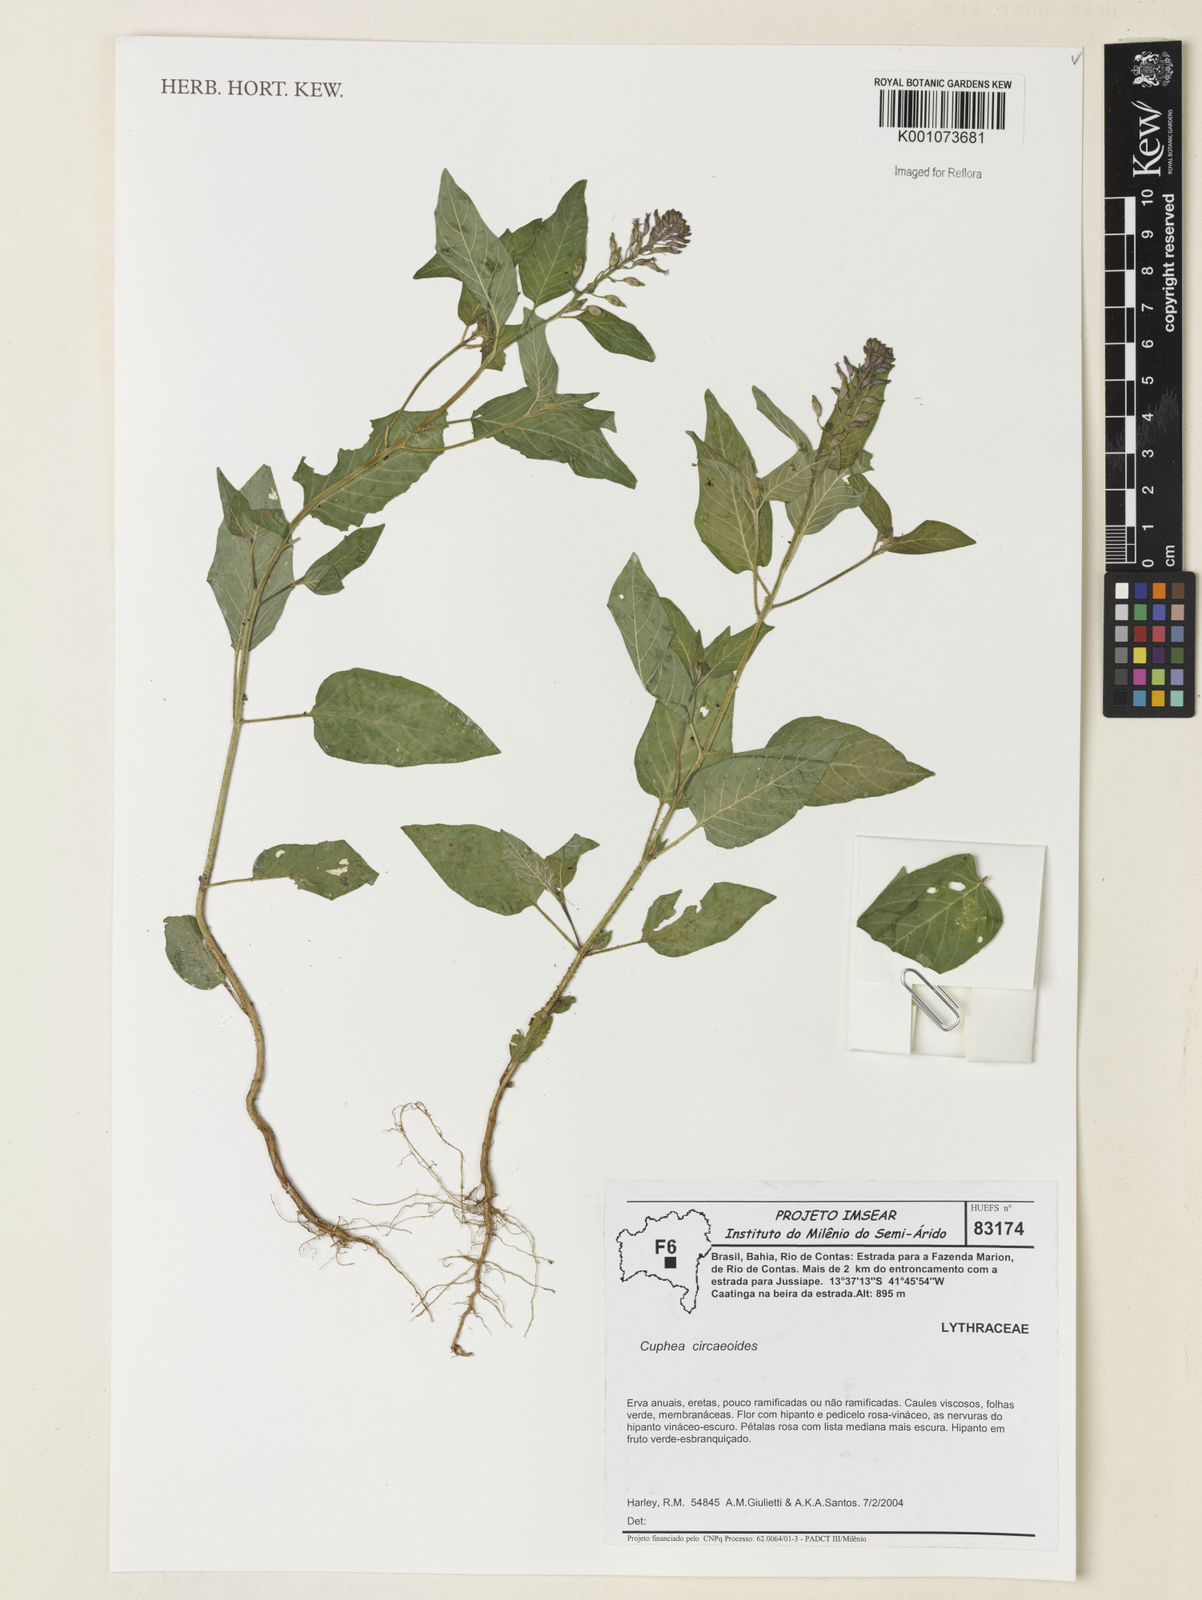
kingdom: Plantae
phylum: Tracheophyta
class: Magnoliopsida
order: Myrtales
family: Lythraceae
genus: Cuphea
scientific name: Cuphea circaeoides
